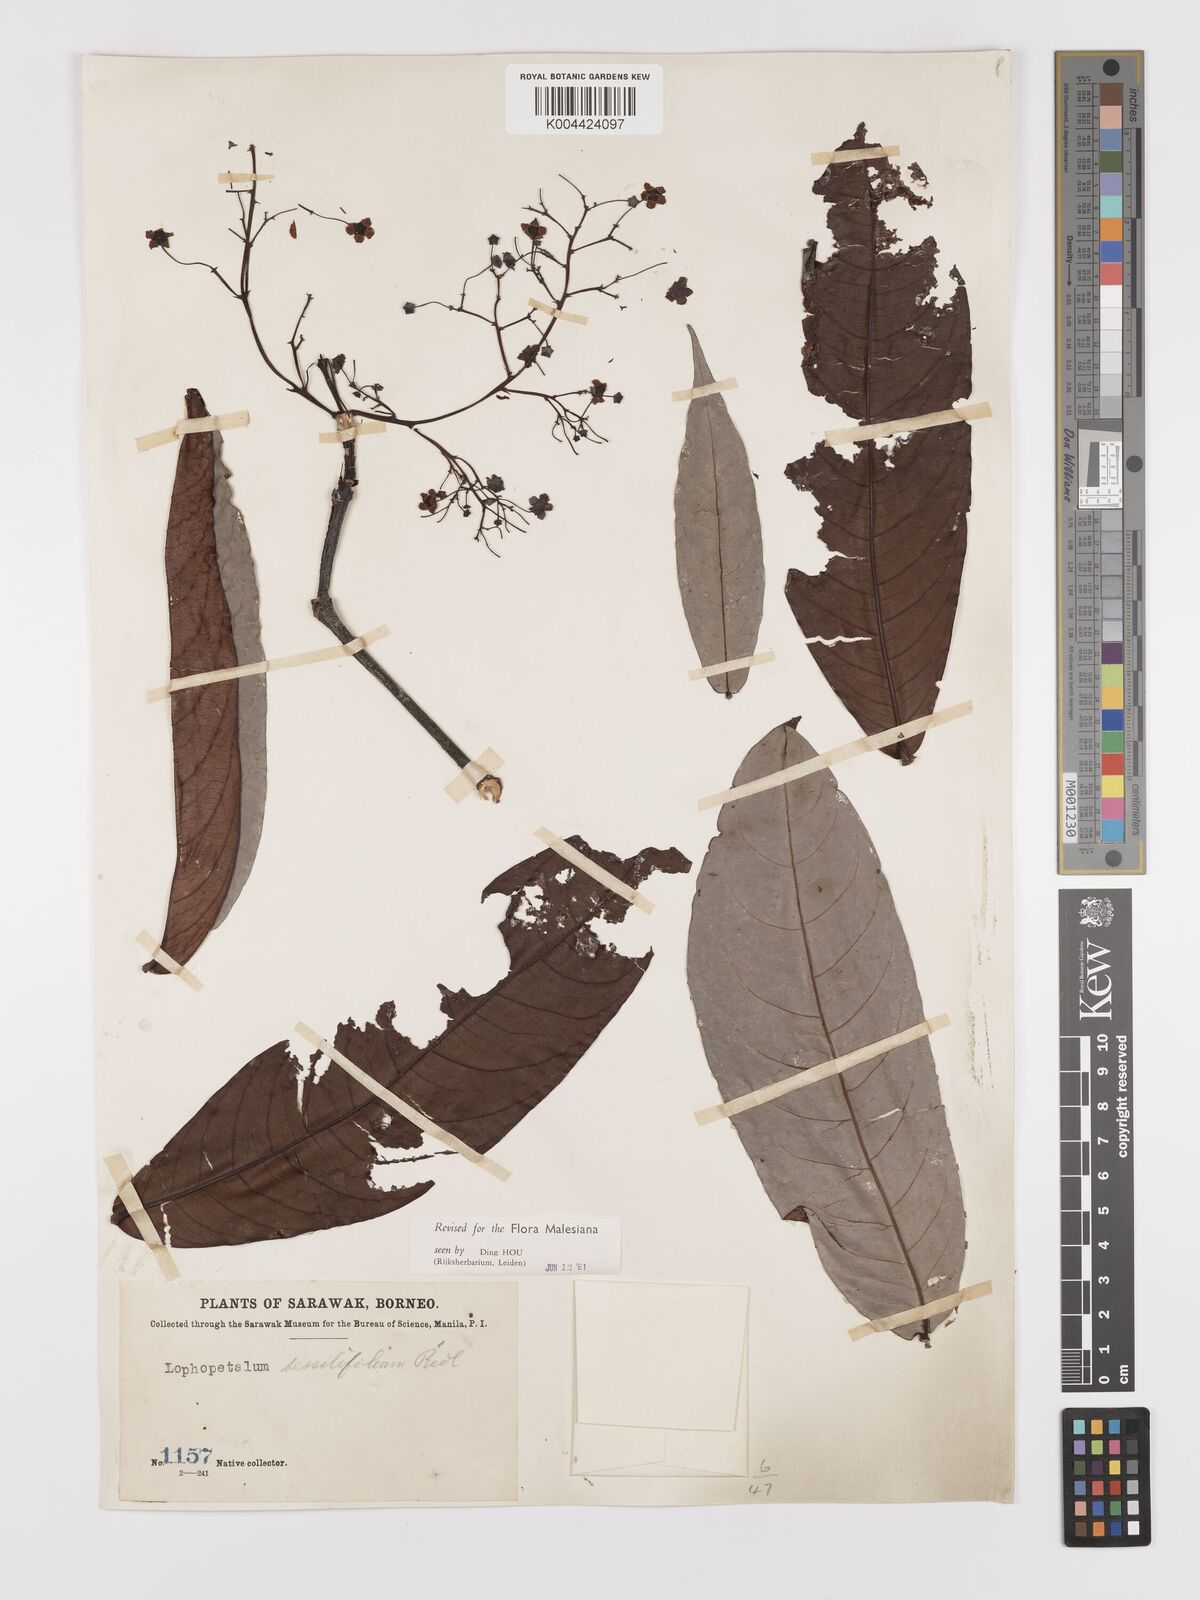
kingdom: Plantae
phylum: Tracheophyta
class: Magnoliopsida
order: Celastrales
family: Celastraceae
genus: Lophopetalum
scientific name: Lophopetalum sessilifolium
